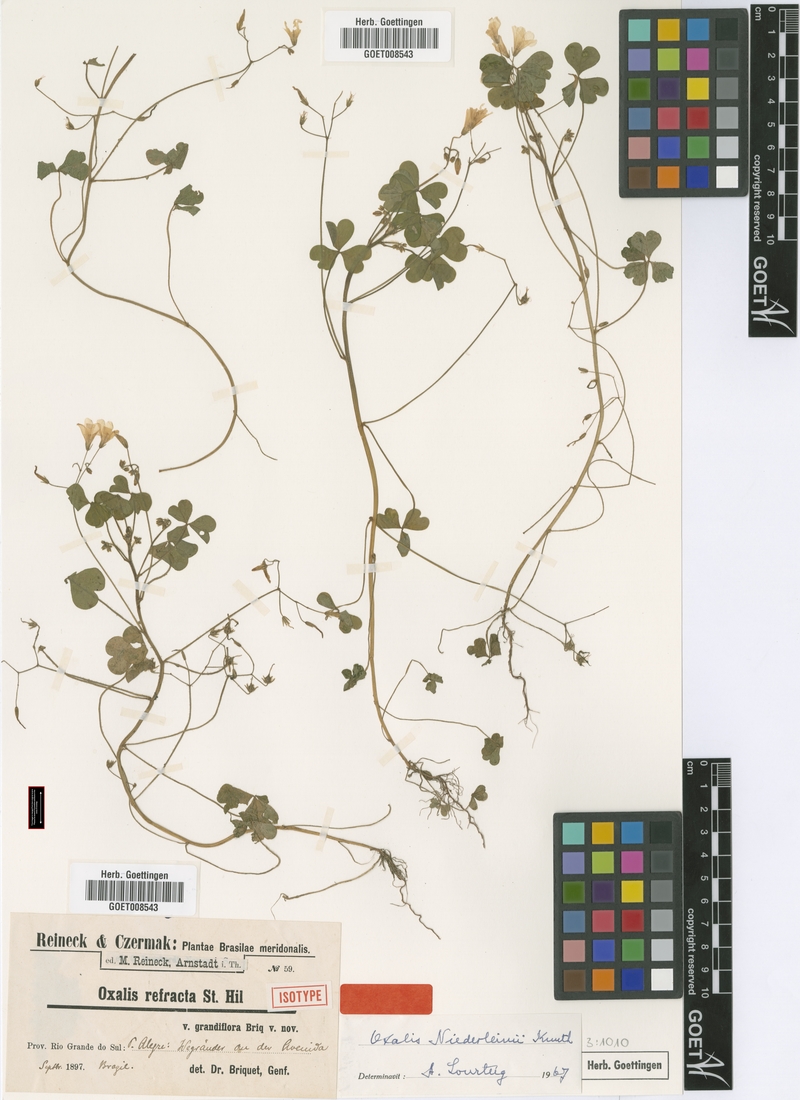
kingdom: Plantae
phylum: Tracheophyta
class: Magnoliopsida
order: Oxalidales
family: Oxalidaceae
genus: Oxalis
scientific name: Oxalis niederleinii
